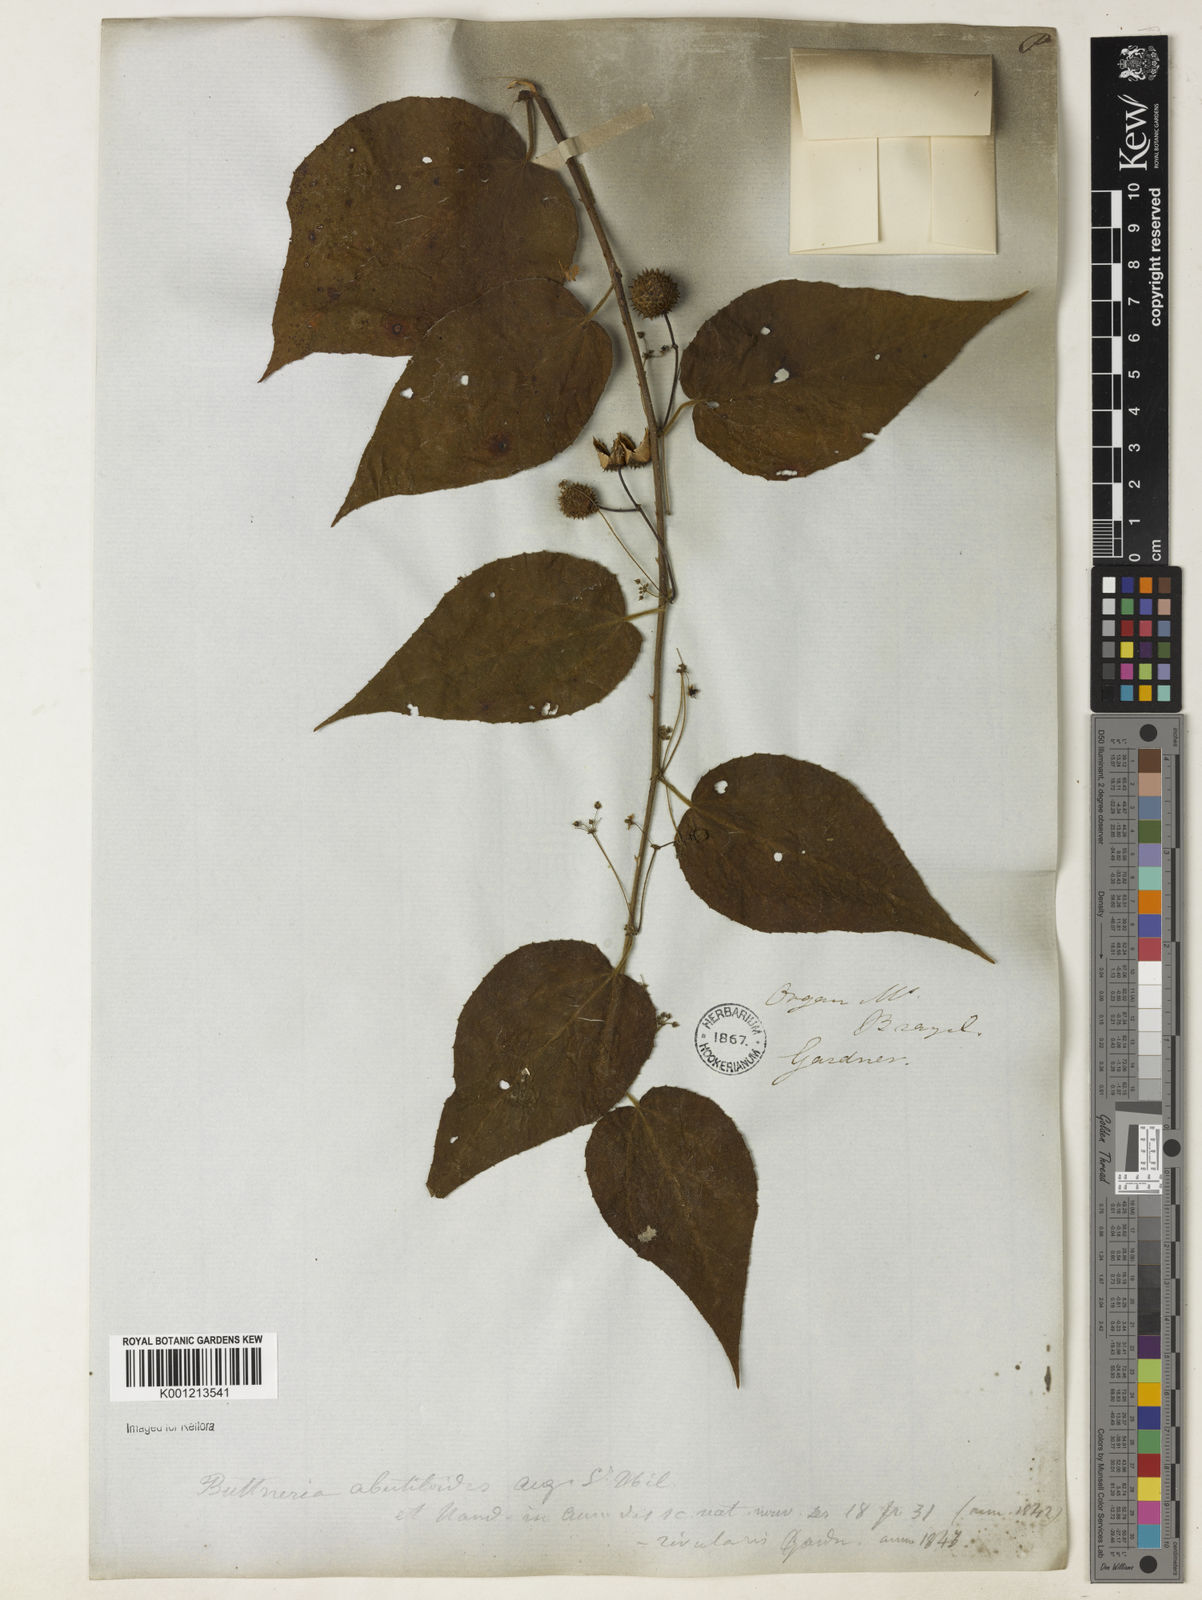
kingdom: Plantae
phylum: Tracheophyta
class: Magnoliopsida
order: Malvales
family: Malvaceae
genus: Byttneria
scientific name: Byttneria hirsuta
